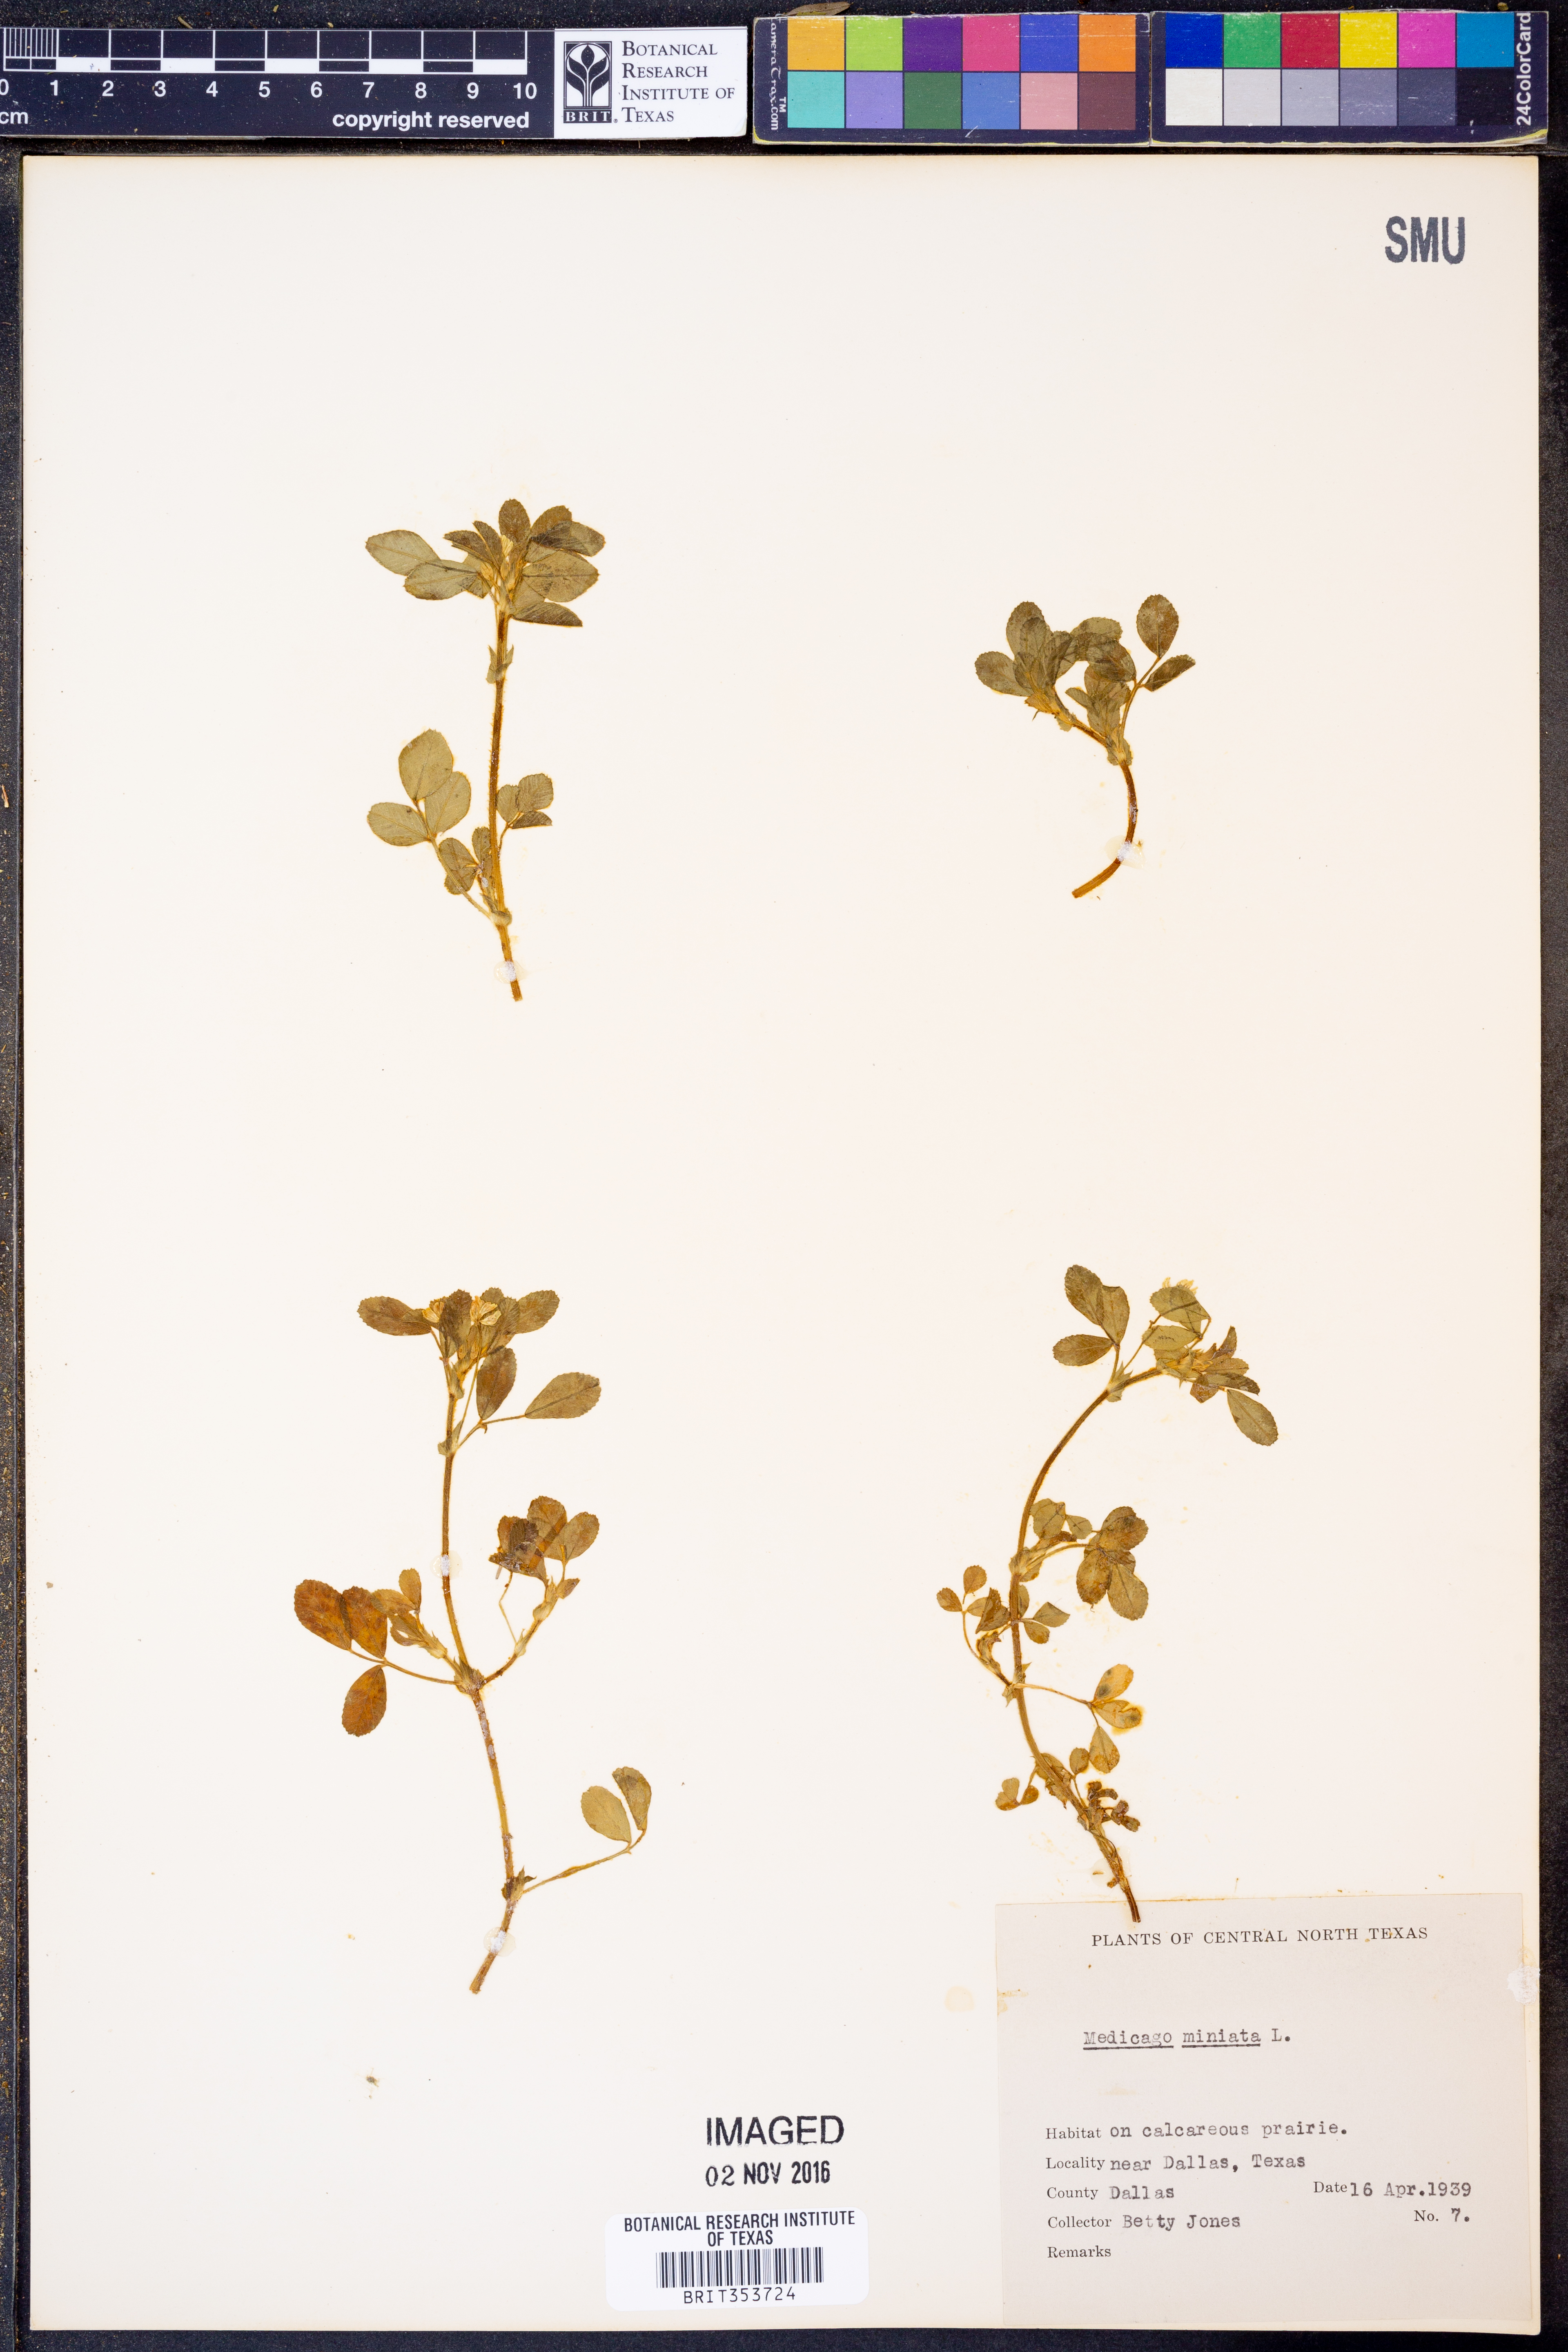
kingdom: Plantae
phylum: Tracheophyta
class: Magnoliopsida
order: Fabales
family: Fabaceae
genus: Medicago
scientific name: Medicago minima
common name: Little bur-clover
